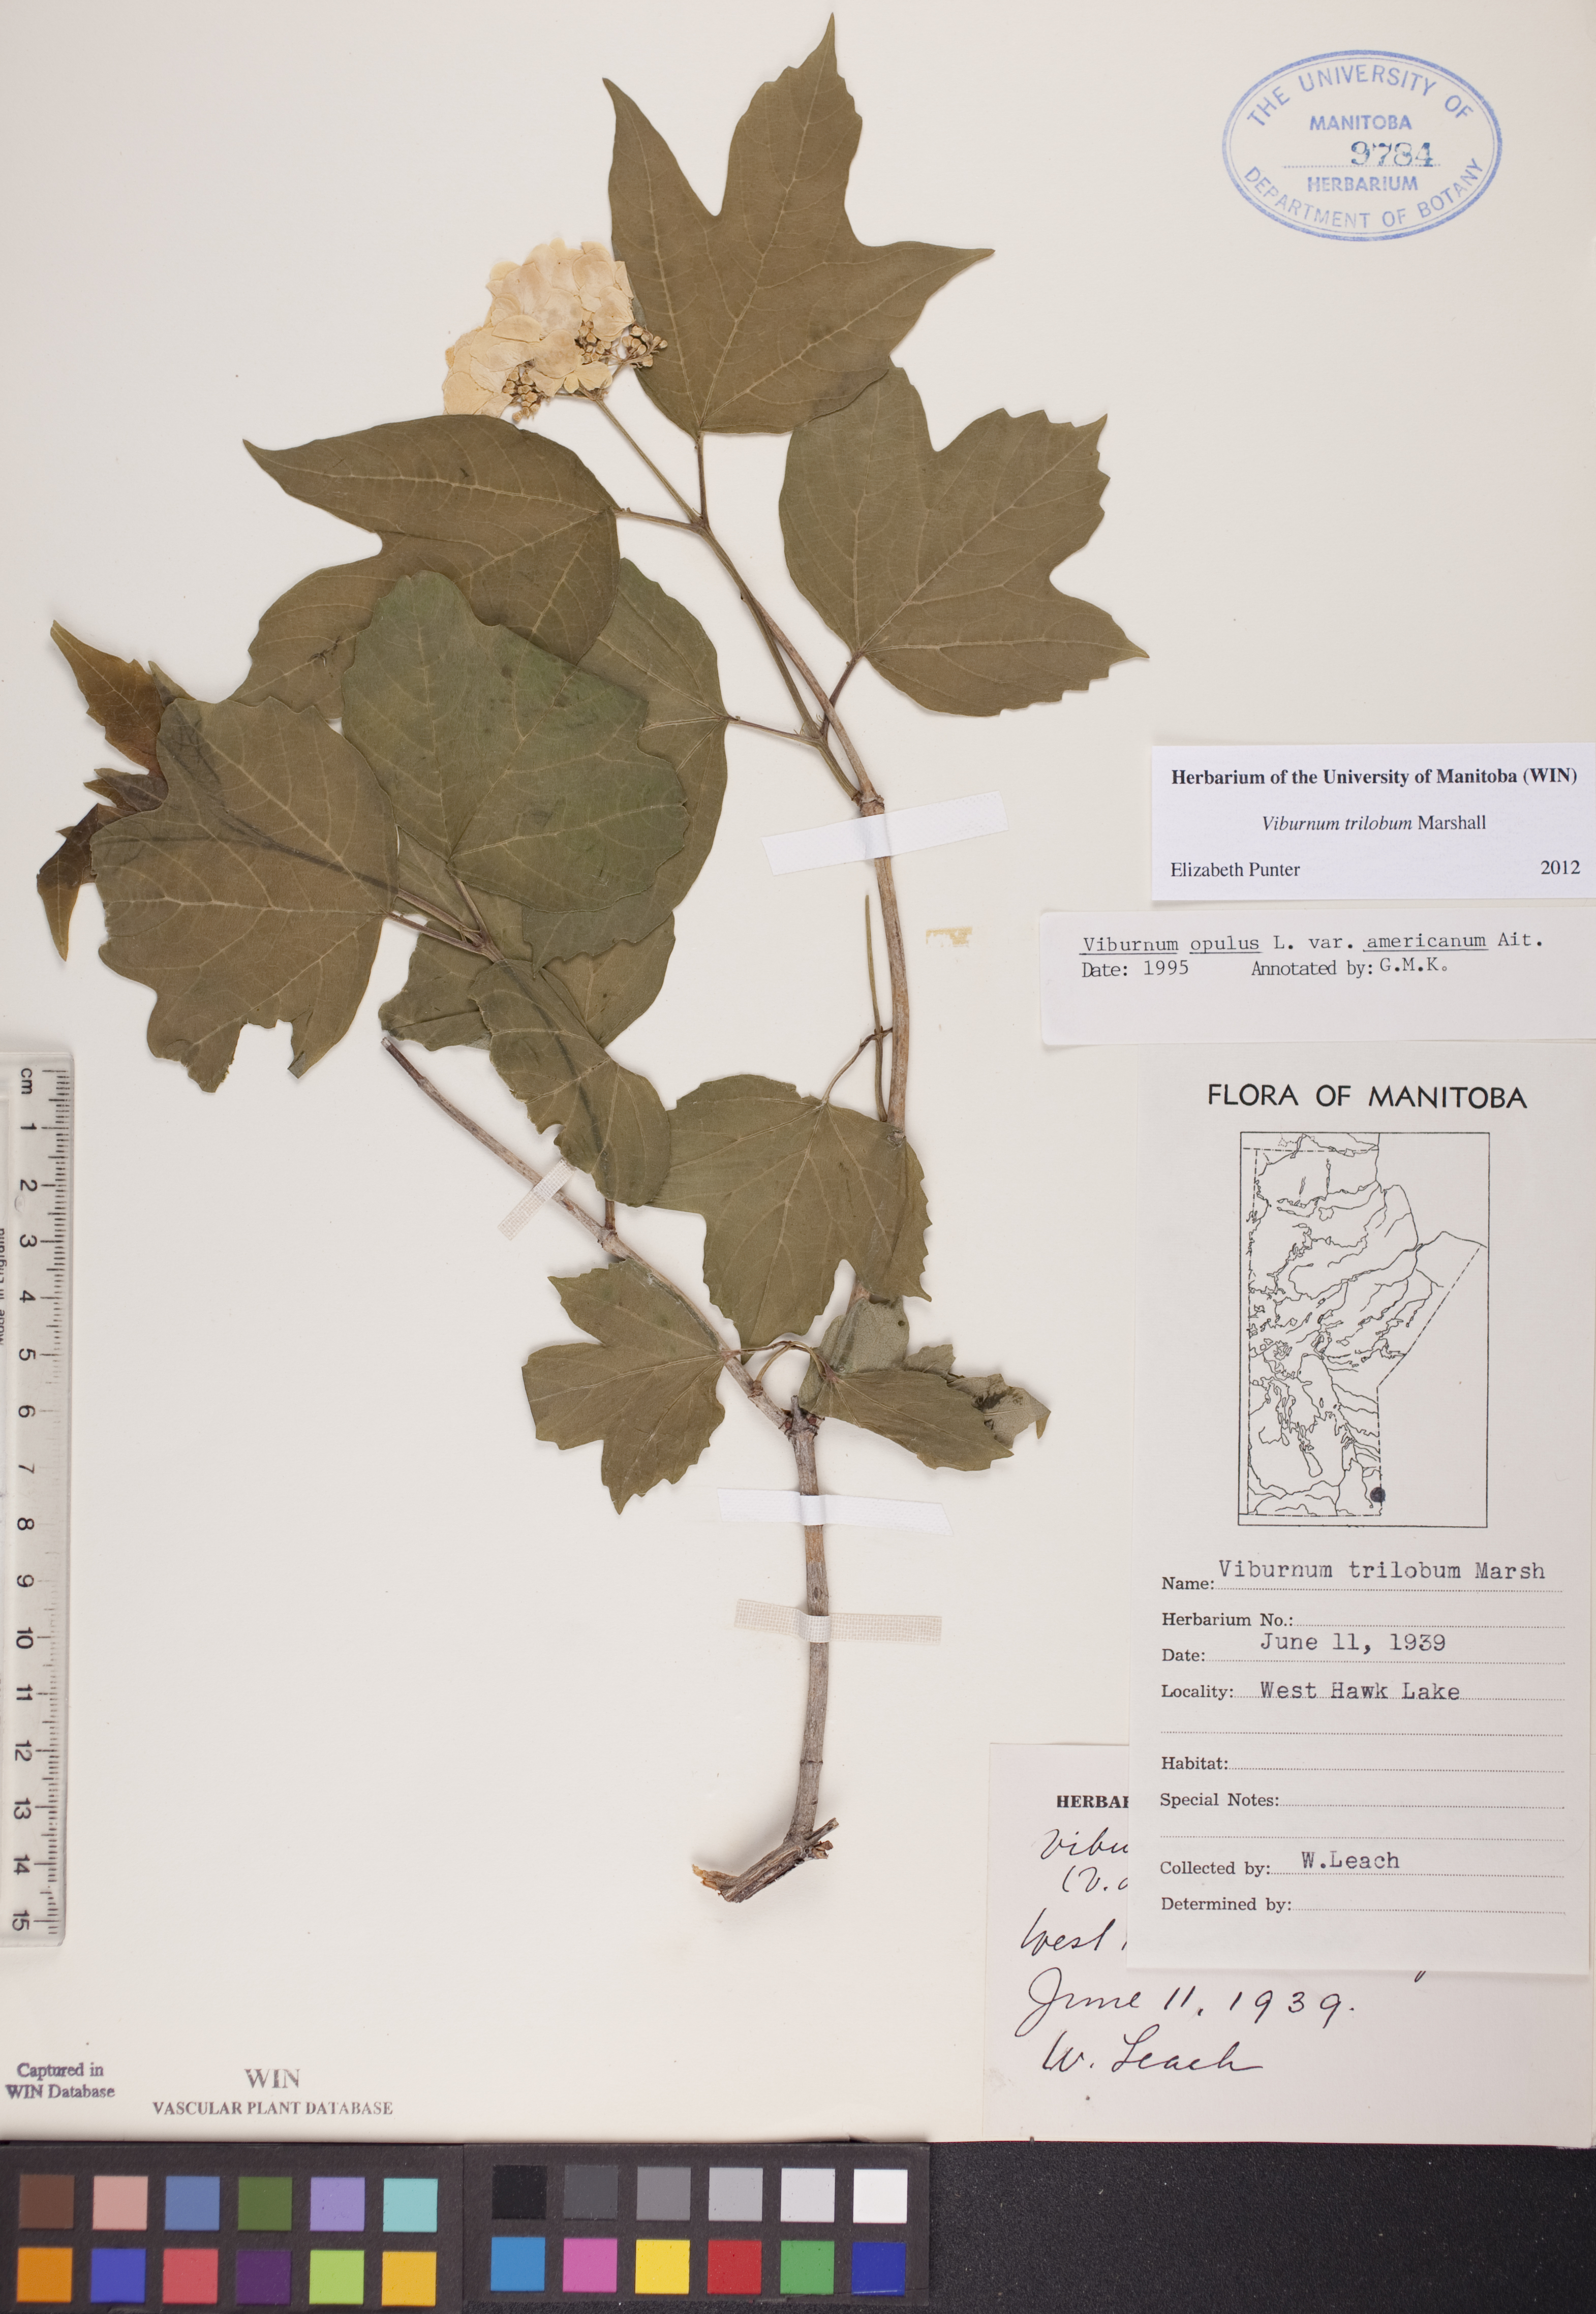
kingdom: Plantae
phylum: Tracheophyta
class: Magnoliopsida
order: Dipsacales
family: Viburnaceae
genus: Viburnum
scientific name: Viburnum trilobum
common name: American cranberrybush
